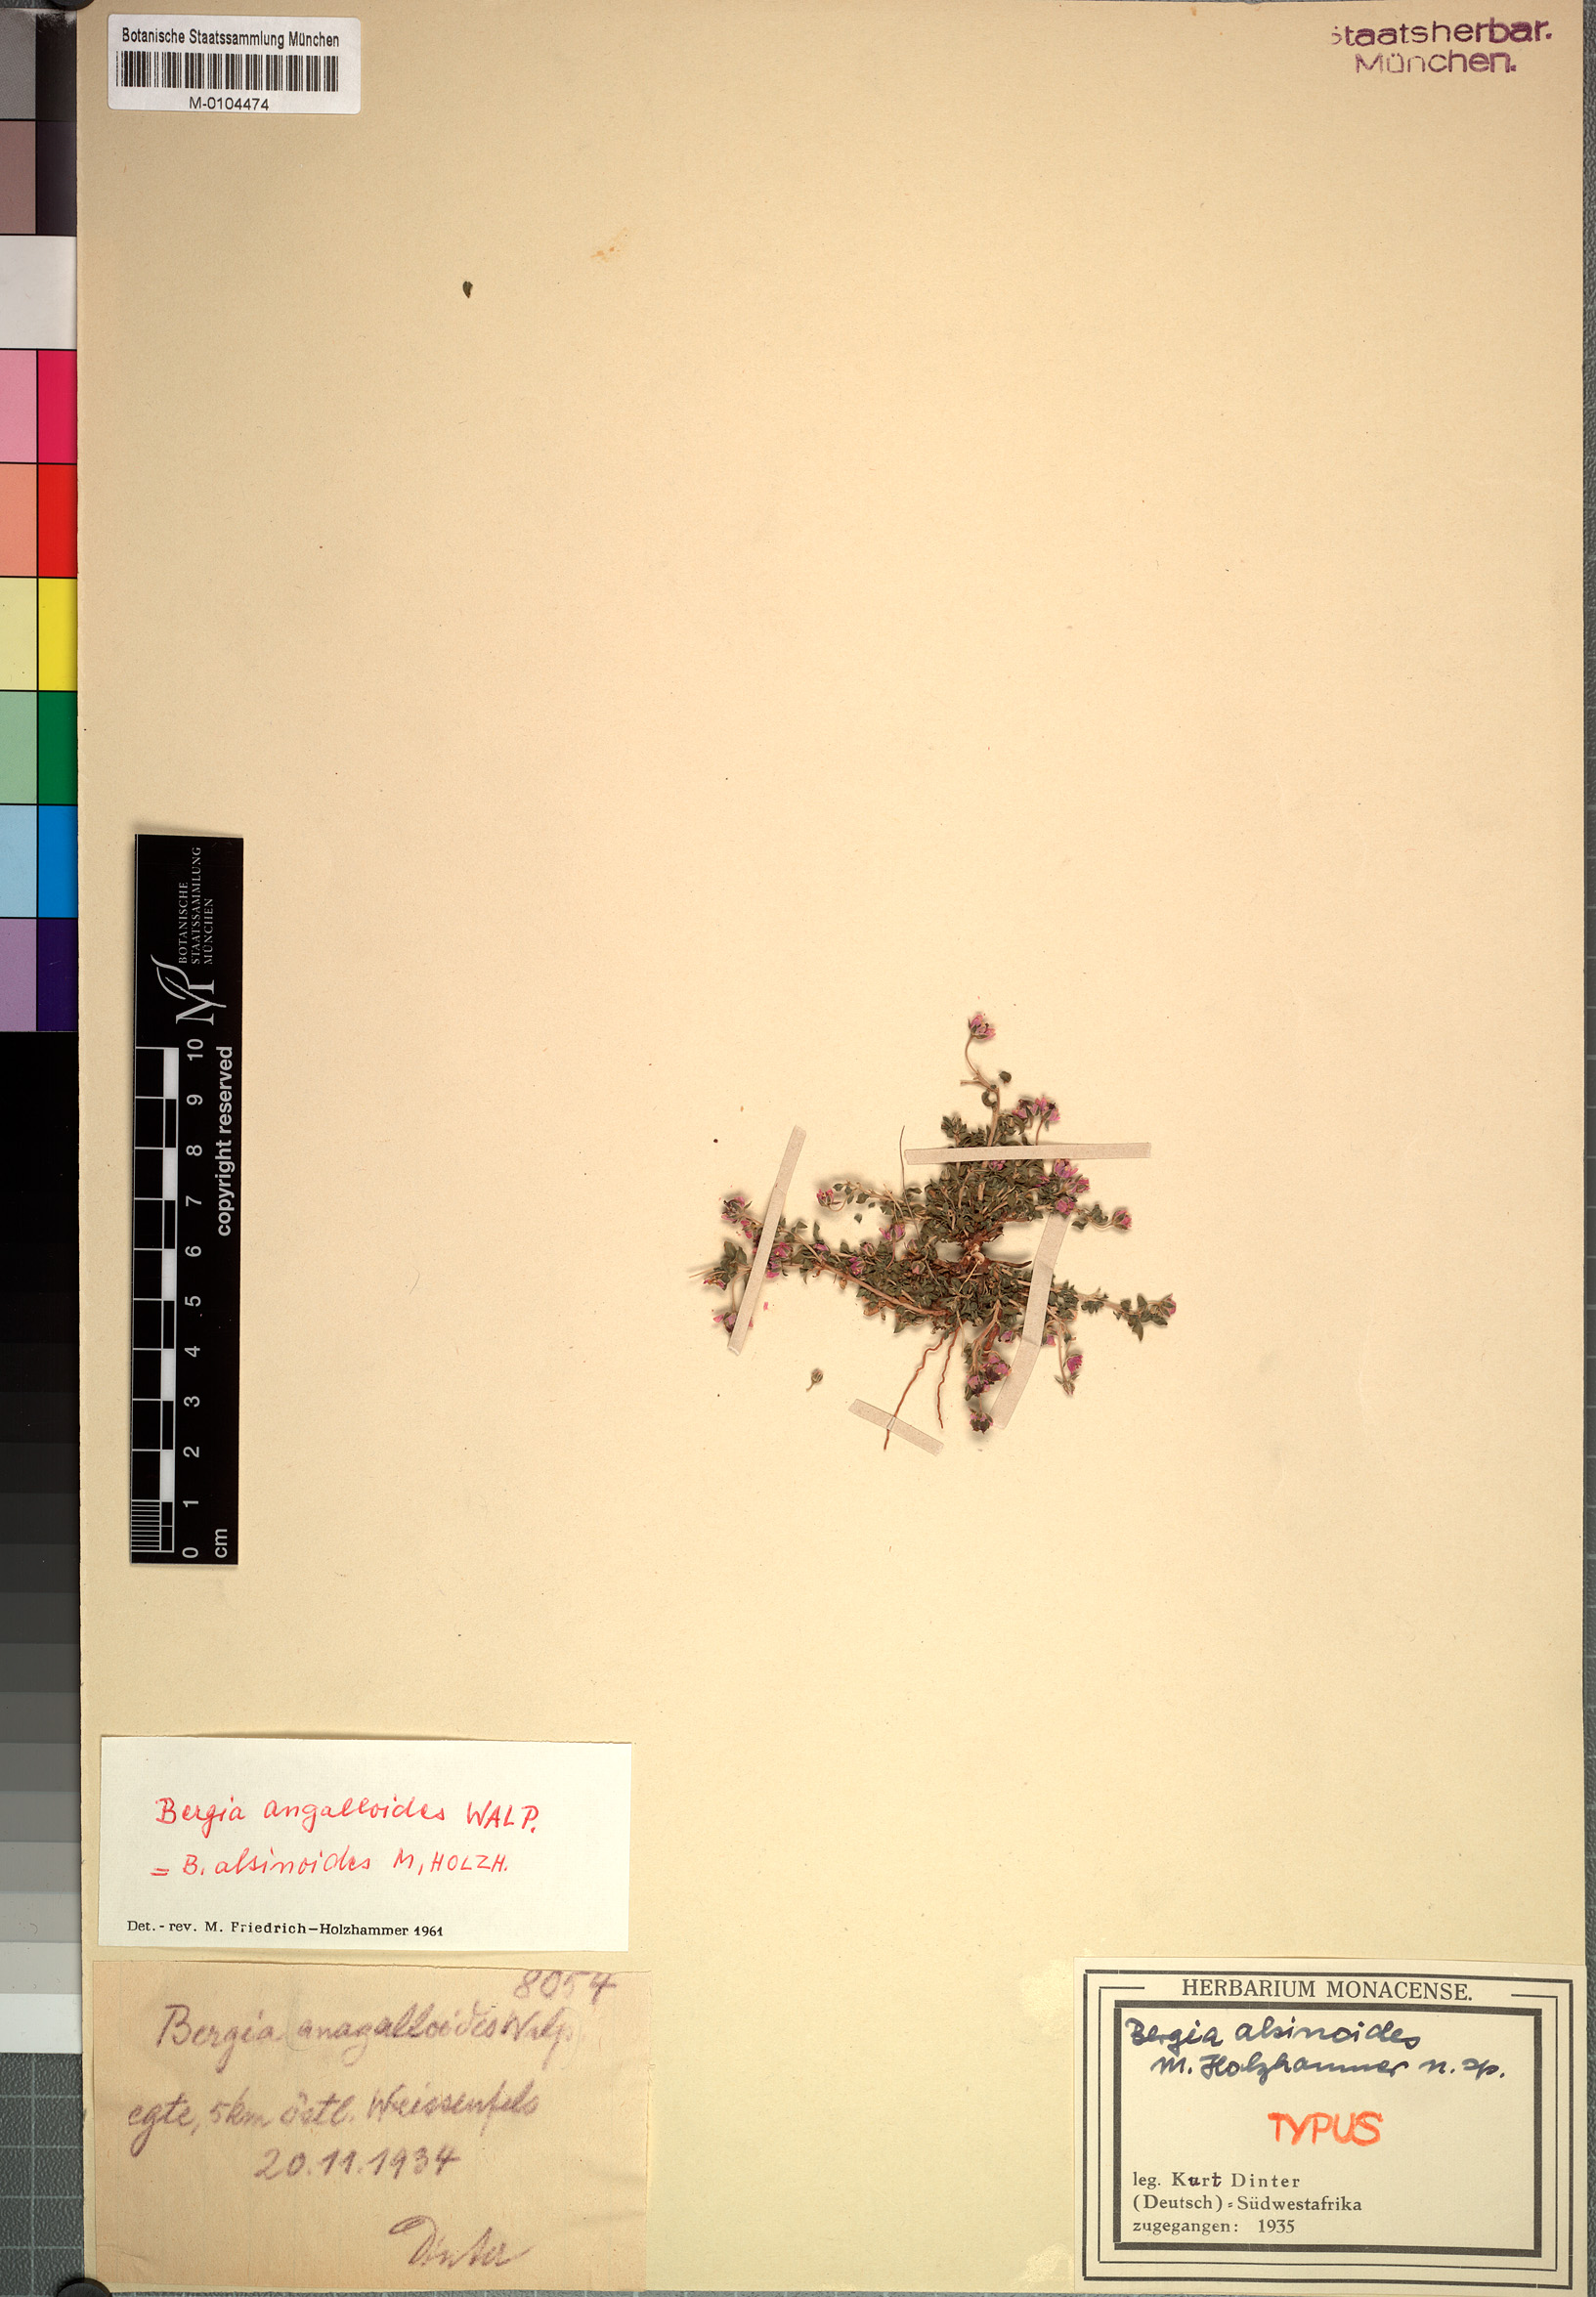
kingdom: Plantae
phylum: Tracheophyta
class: Magnoliopsida
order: Malpighiales
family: Elatinaceae
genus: Bergia
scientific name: Bergia anagalloides
